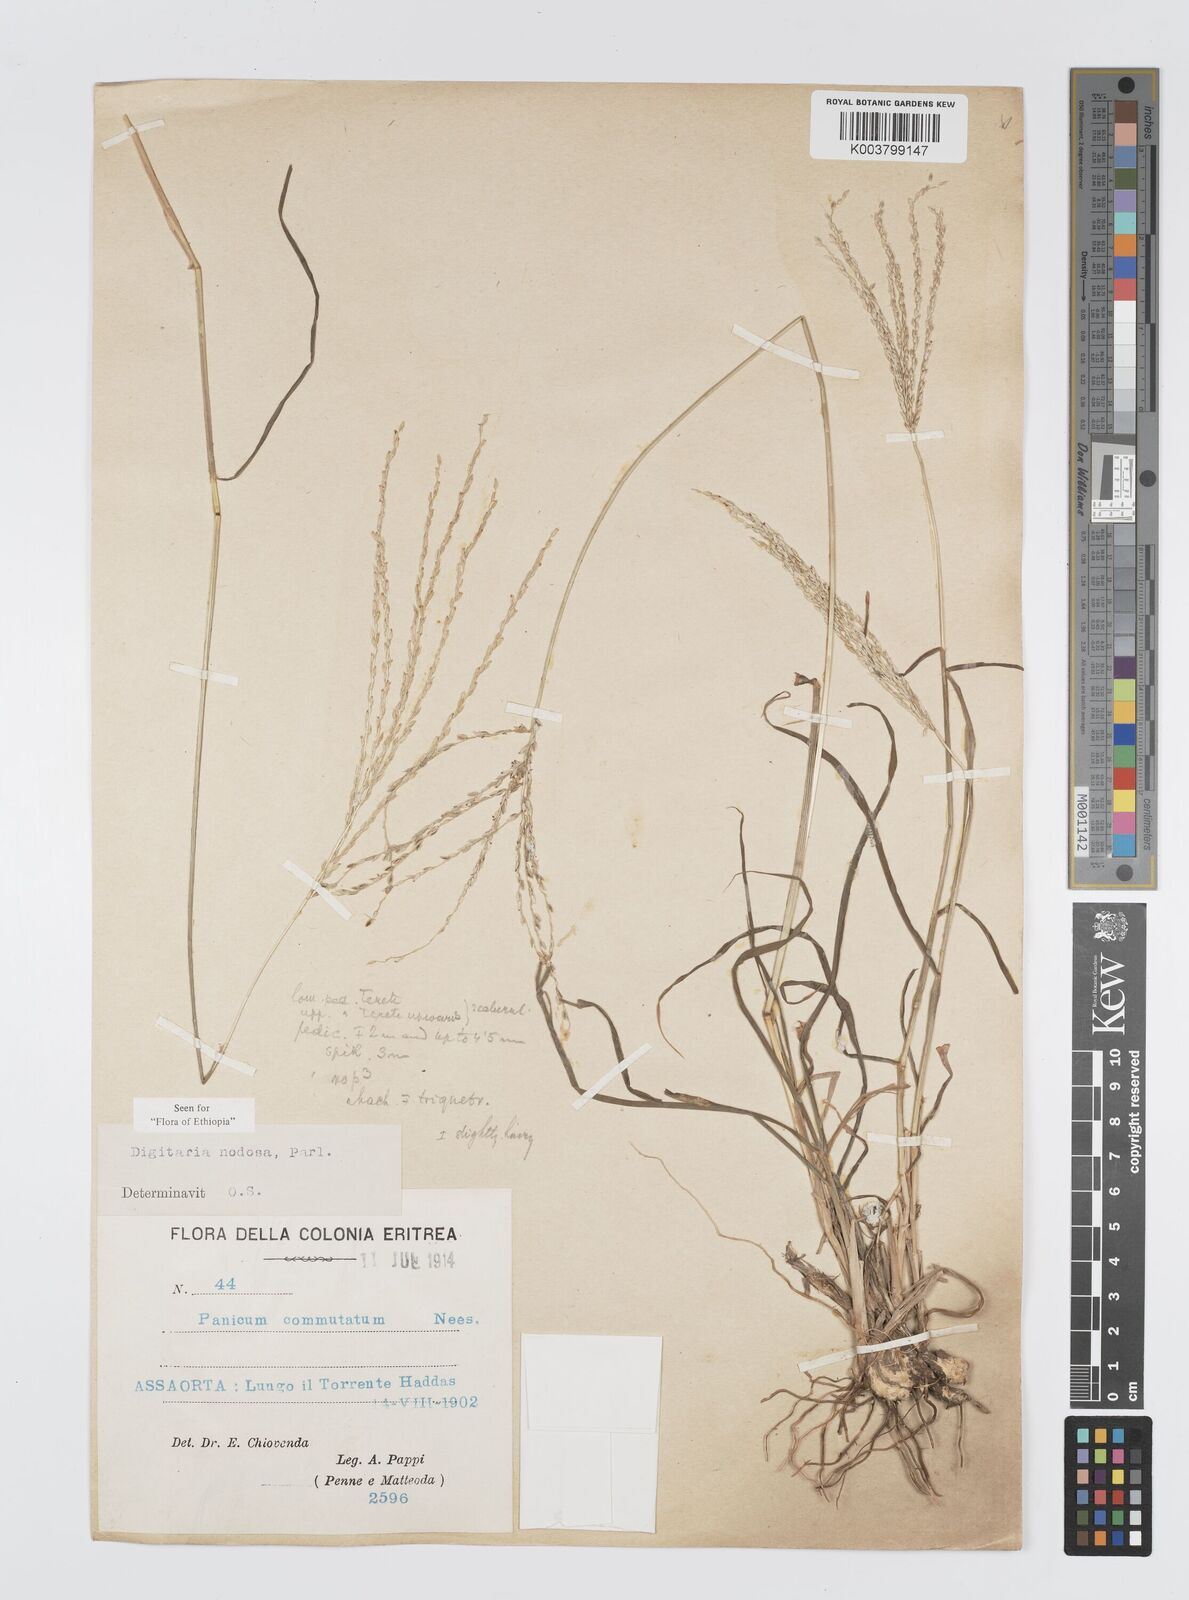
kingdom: Plantae
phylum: Tracheophyta
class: Liliopsida
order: Poales
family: Poaceae
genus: Digitaria
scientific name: Digitaria nodosa
